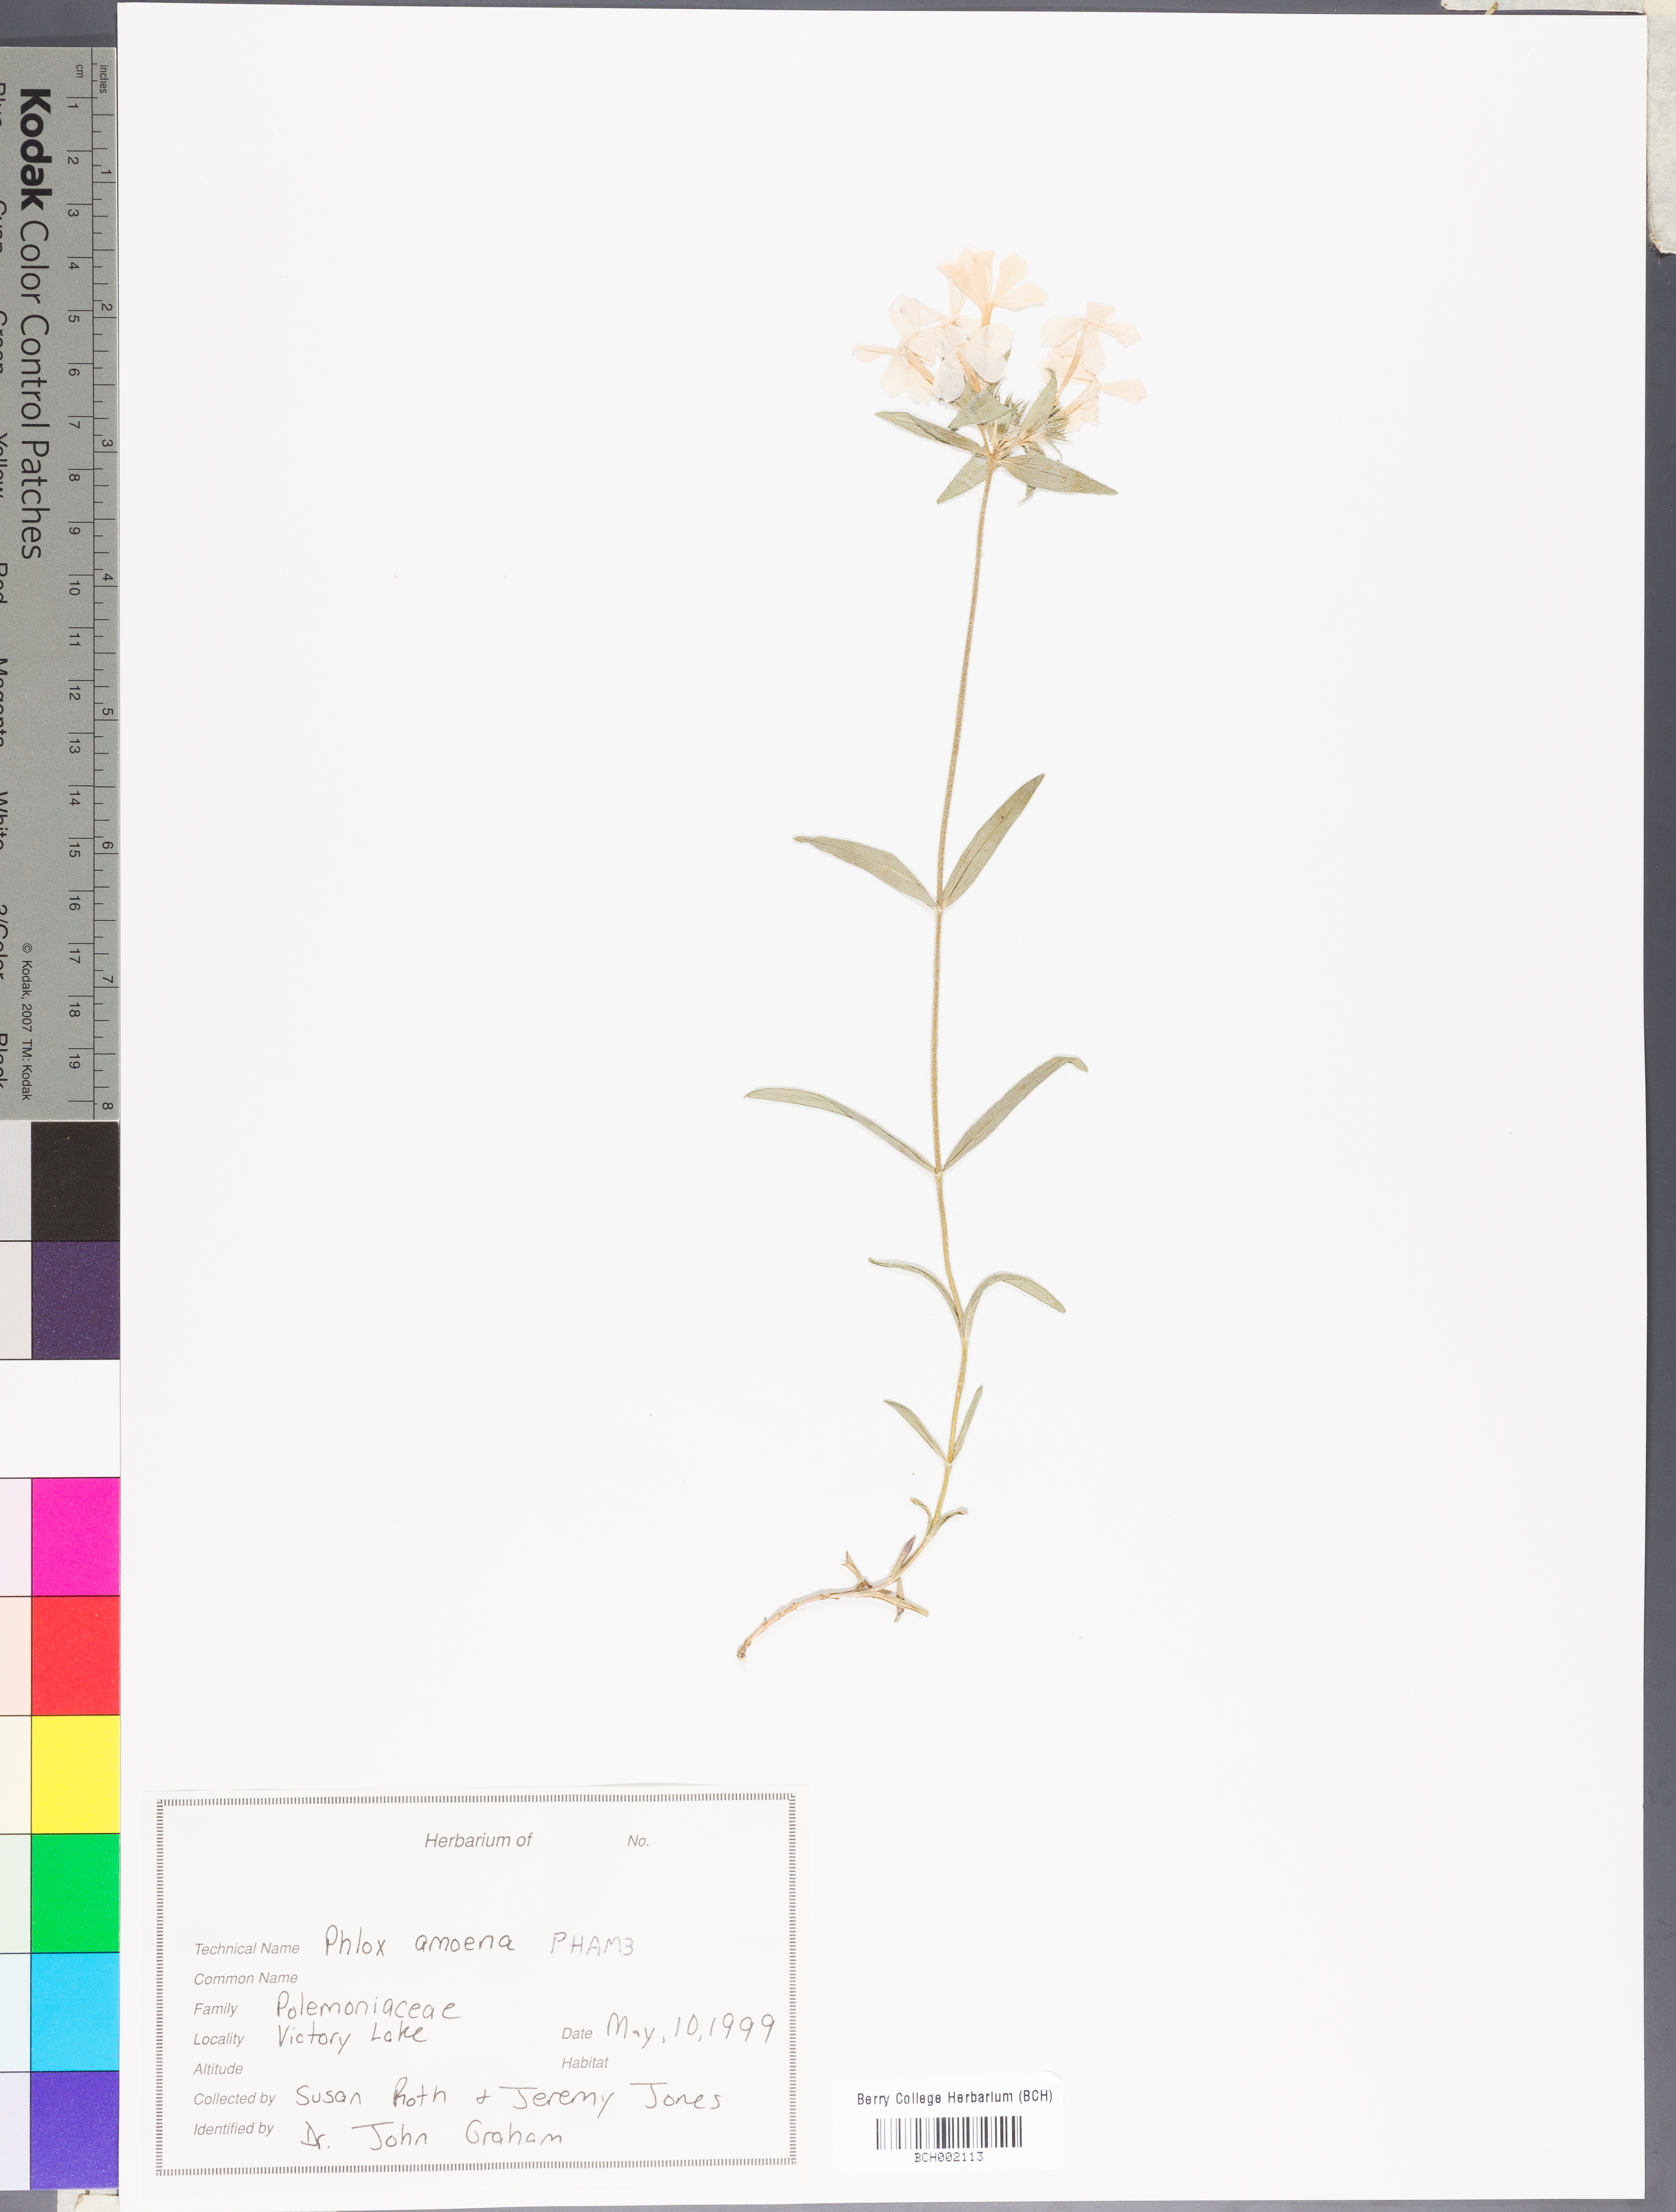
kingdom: Plantae
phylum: Tracheophyta
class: Magnoliopsida
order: Ericales
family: Polemoniaceae
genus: Phlox
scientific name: Phlox amoena
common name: Hairy phlox
